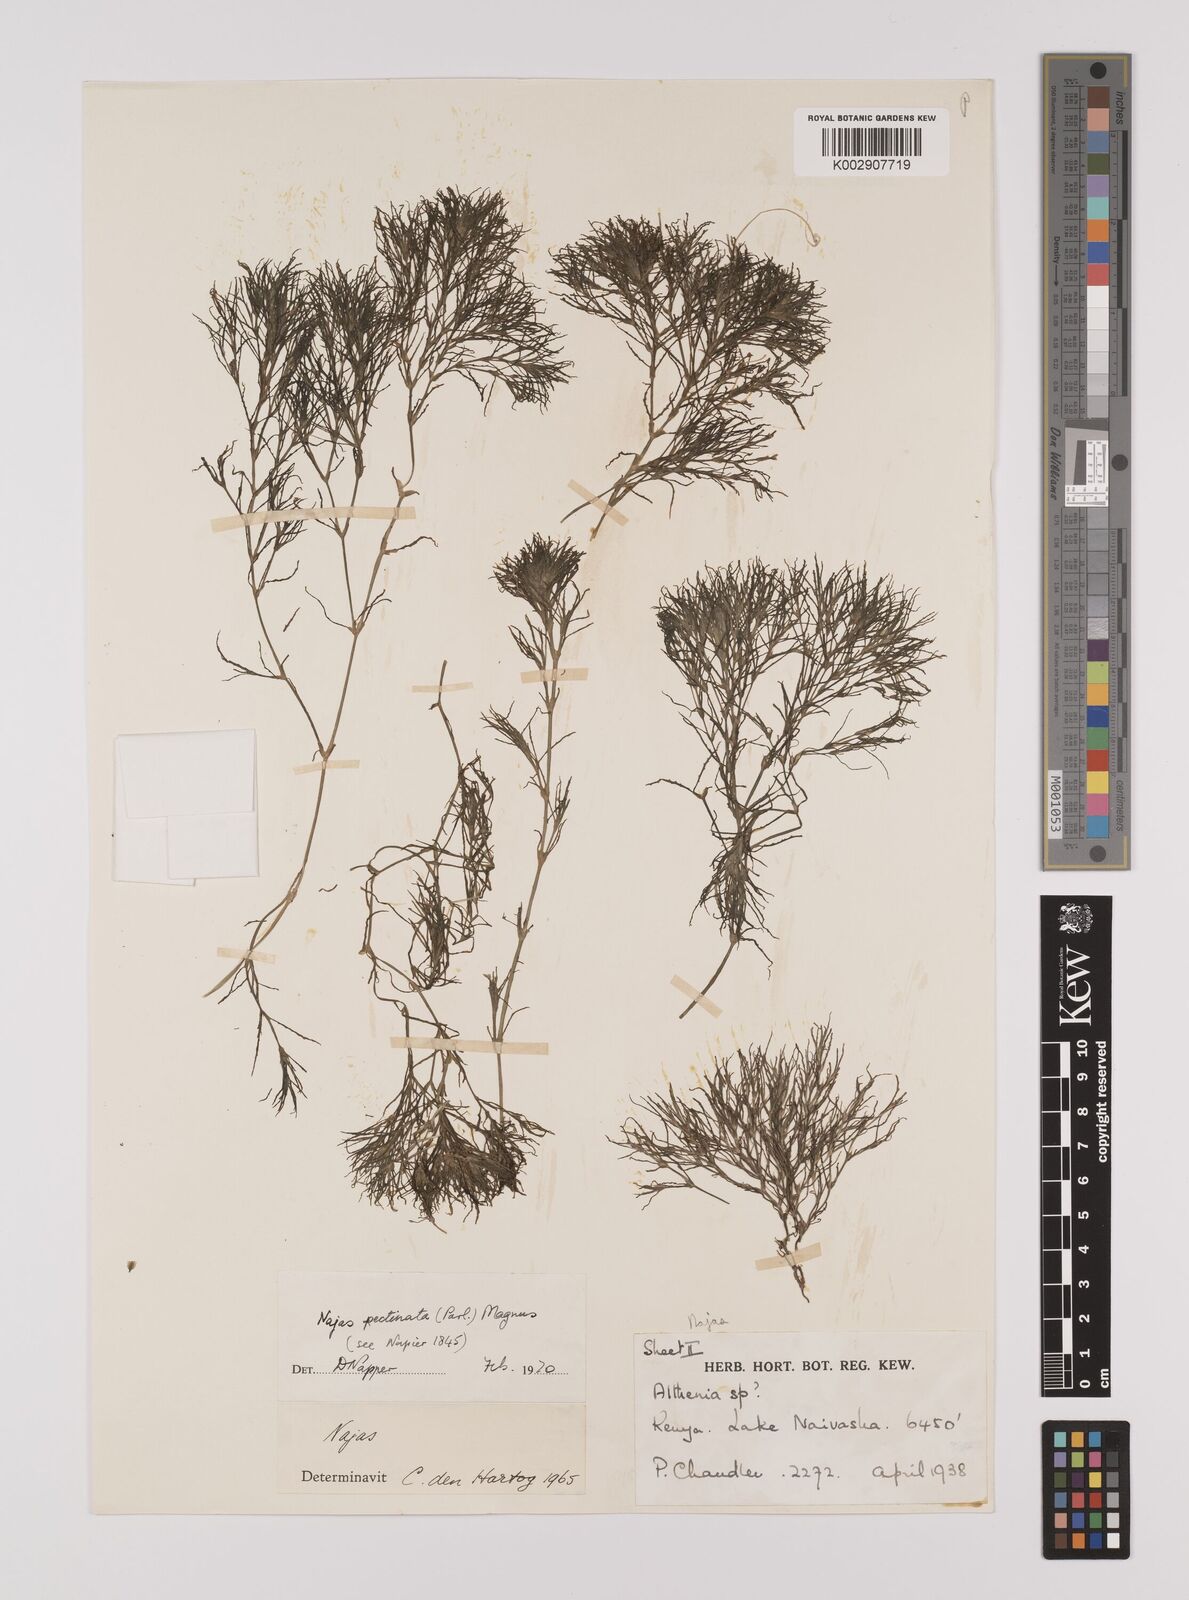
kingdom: Plantae
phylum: Tracheophyta
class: Liliopsida
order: Alismatales
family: Hydrocharitaceae
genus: Najas
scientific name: Najas horrida
